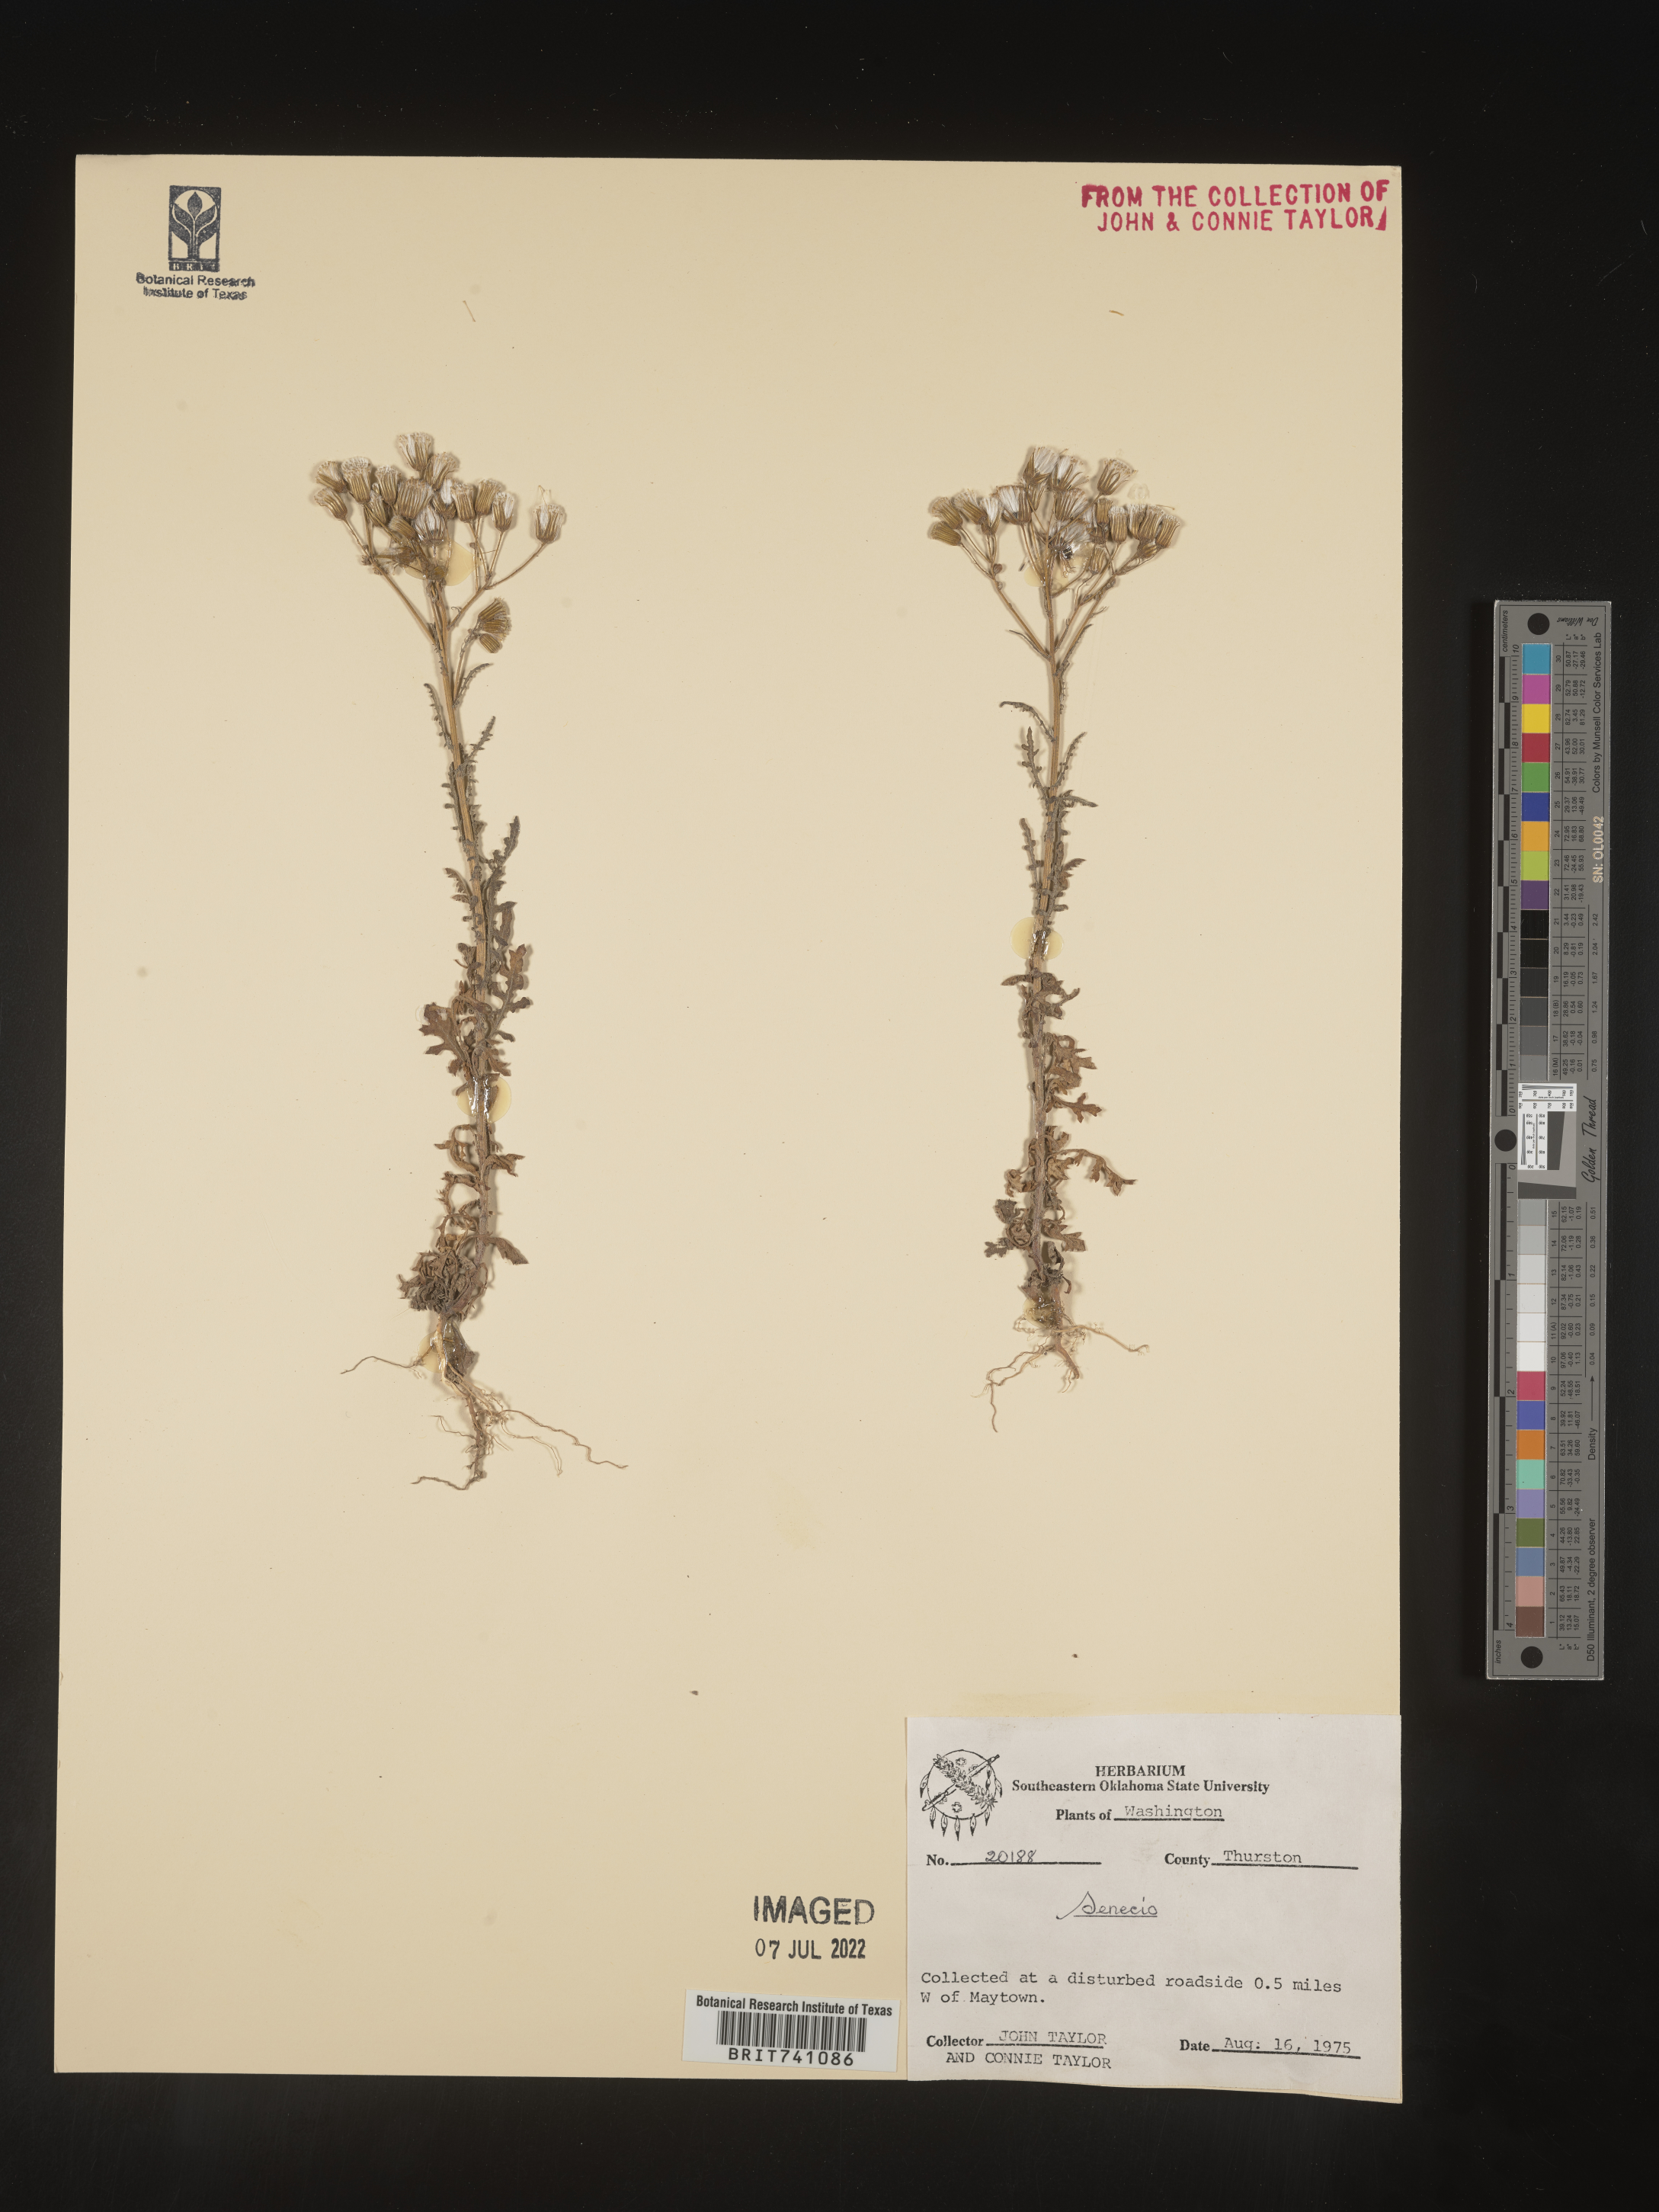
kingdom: Plantae
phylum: Tracheophyta
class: Magnoliopsida
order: Asterales
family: Asteraceae
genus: Senecio
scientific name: Senecio
